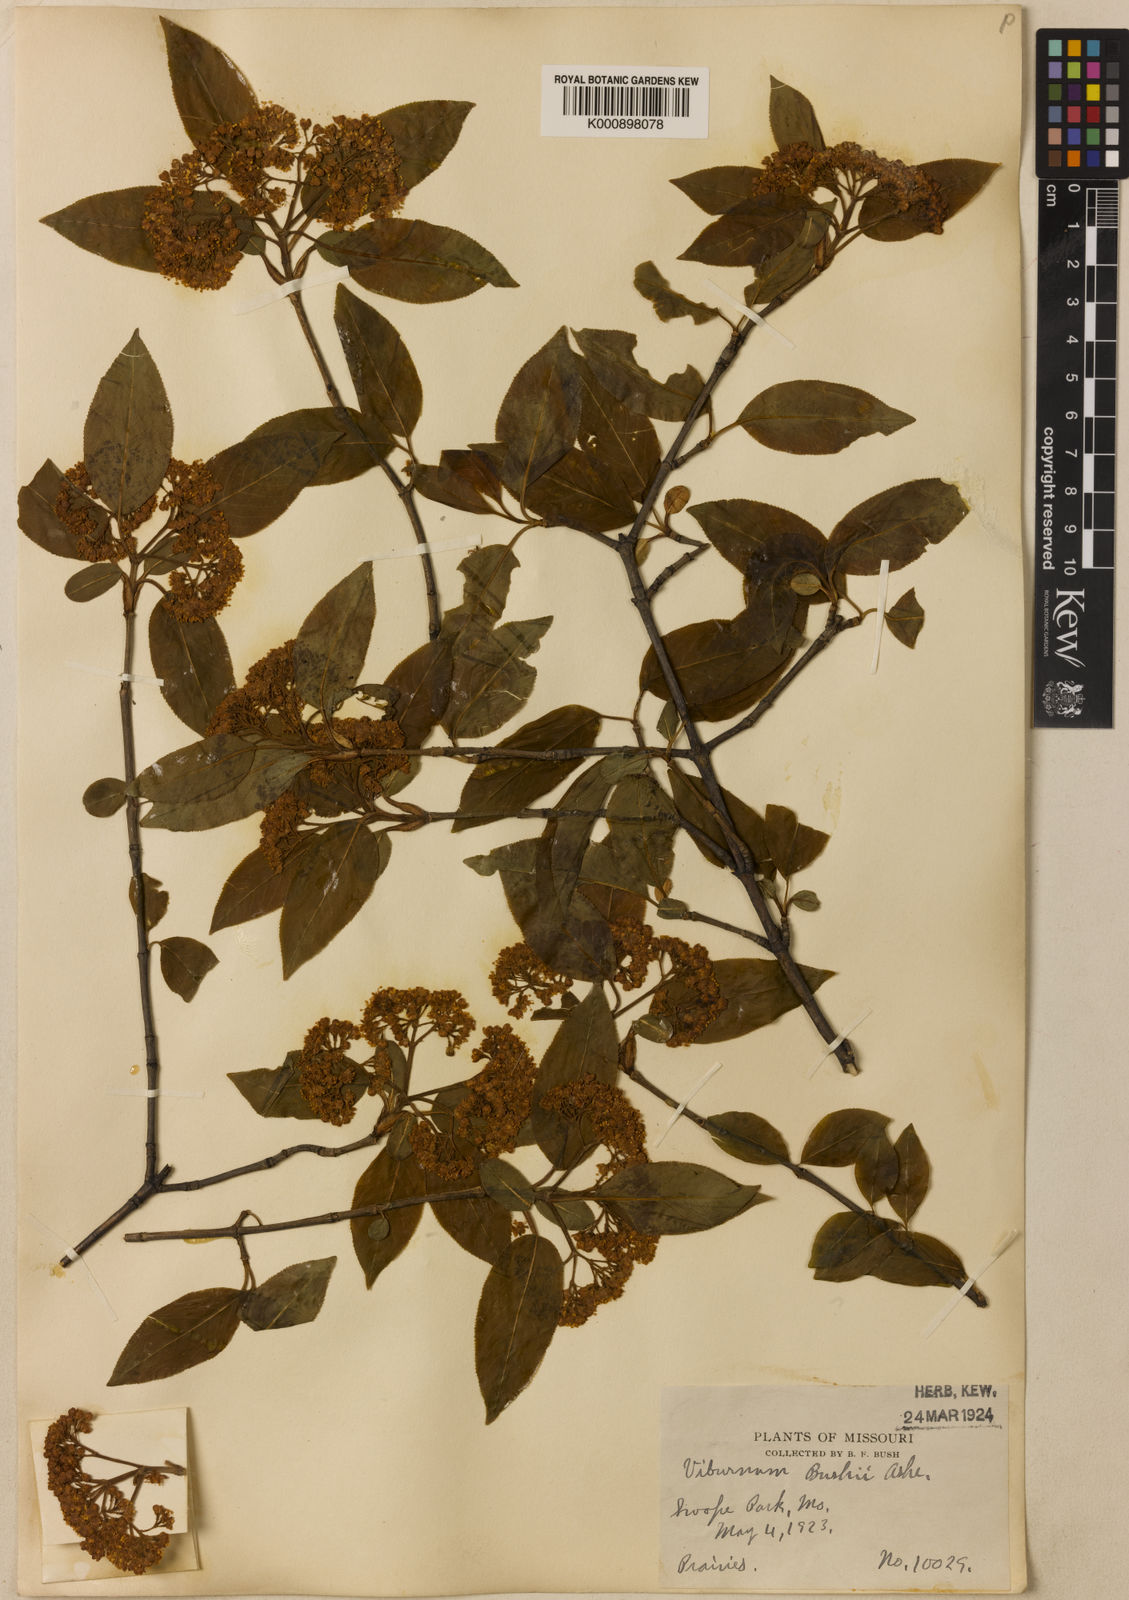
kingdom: Plantae
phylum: Tracheophyta
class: Magnoliopsida
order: Dipsacales
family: Viburnaceae
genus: Viburnum
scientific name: Viburnum prunifolium
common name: Black haw
